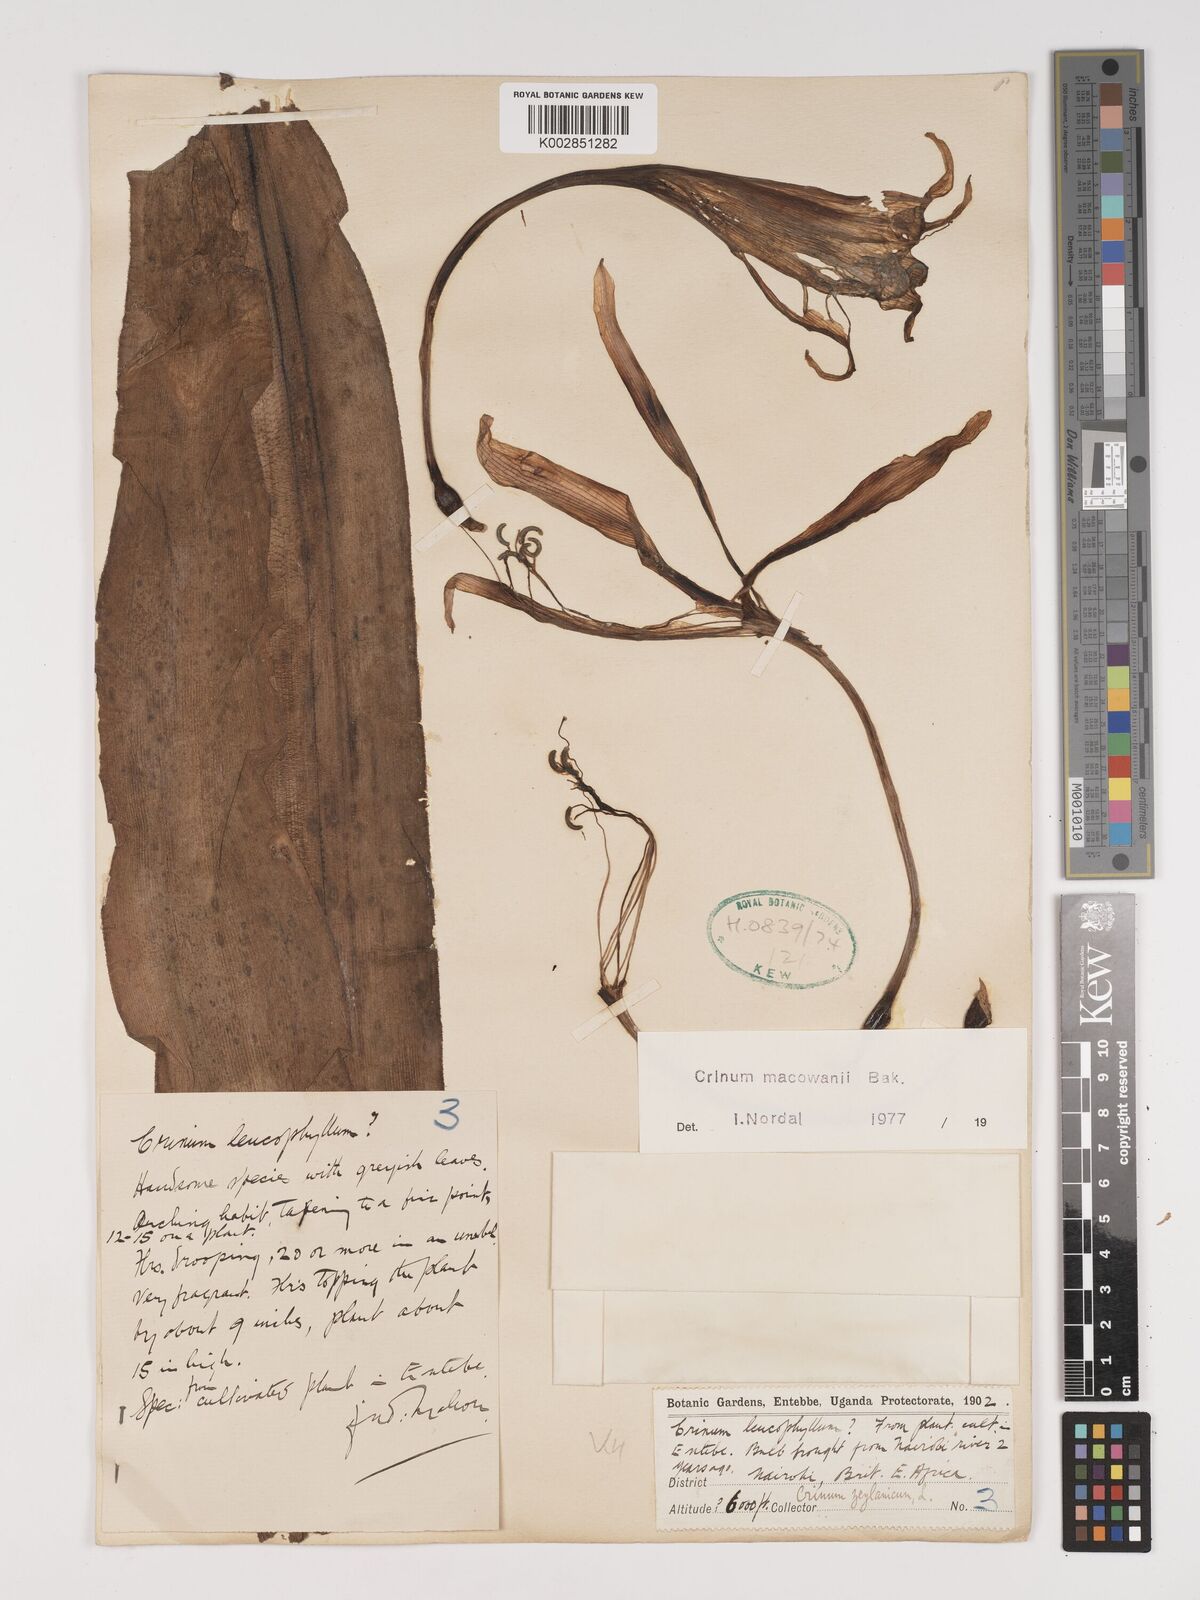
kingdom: Plantae
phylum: Tracheophyta
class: Liliopsida
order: Asparagales
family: Amaryllidaceae
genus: Crinum
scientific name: Crinum macowanii
